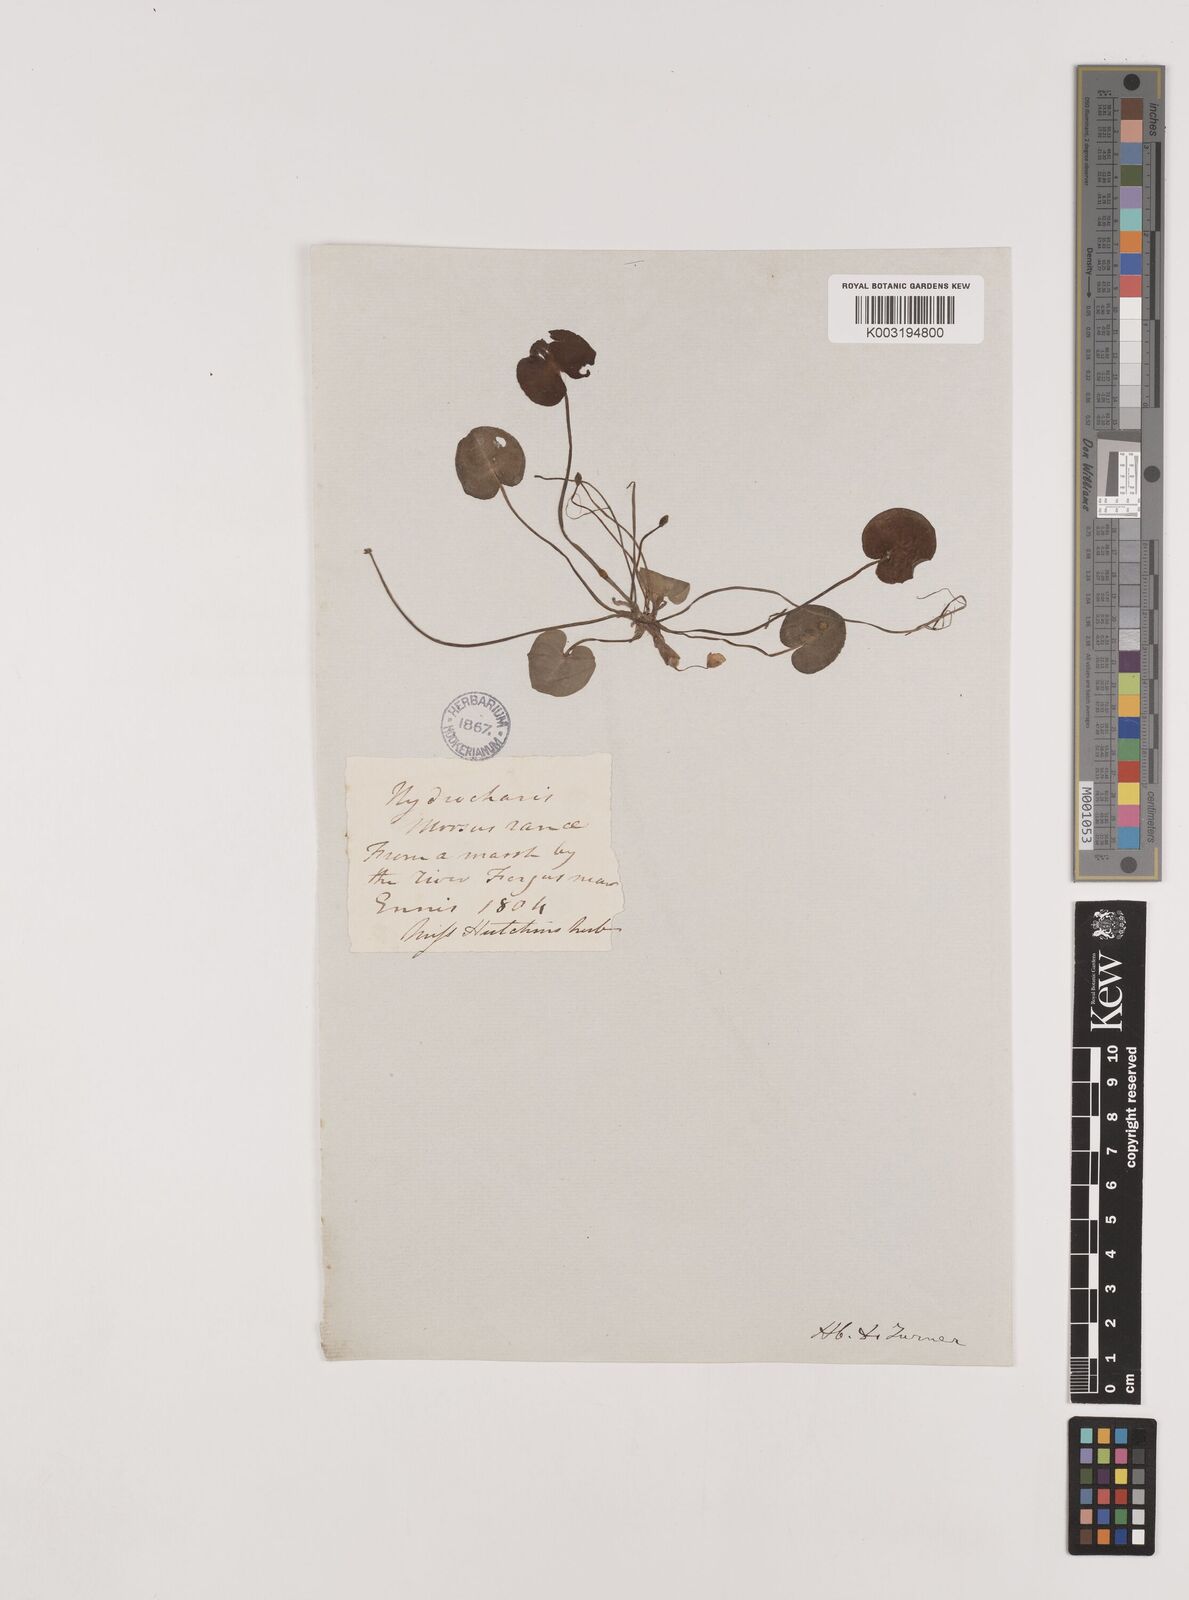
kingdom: Plantae
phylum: Tracheophyta
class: Liliopsida
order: Alismatales
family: Hydrocharitaceae
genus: Hydrocharis
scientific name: Hydrocharis morsus-ranae
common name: Frogbit
